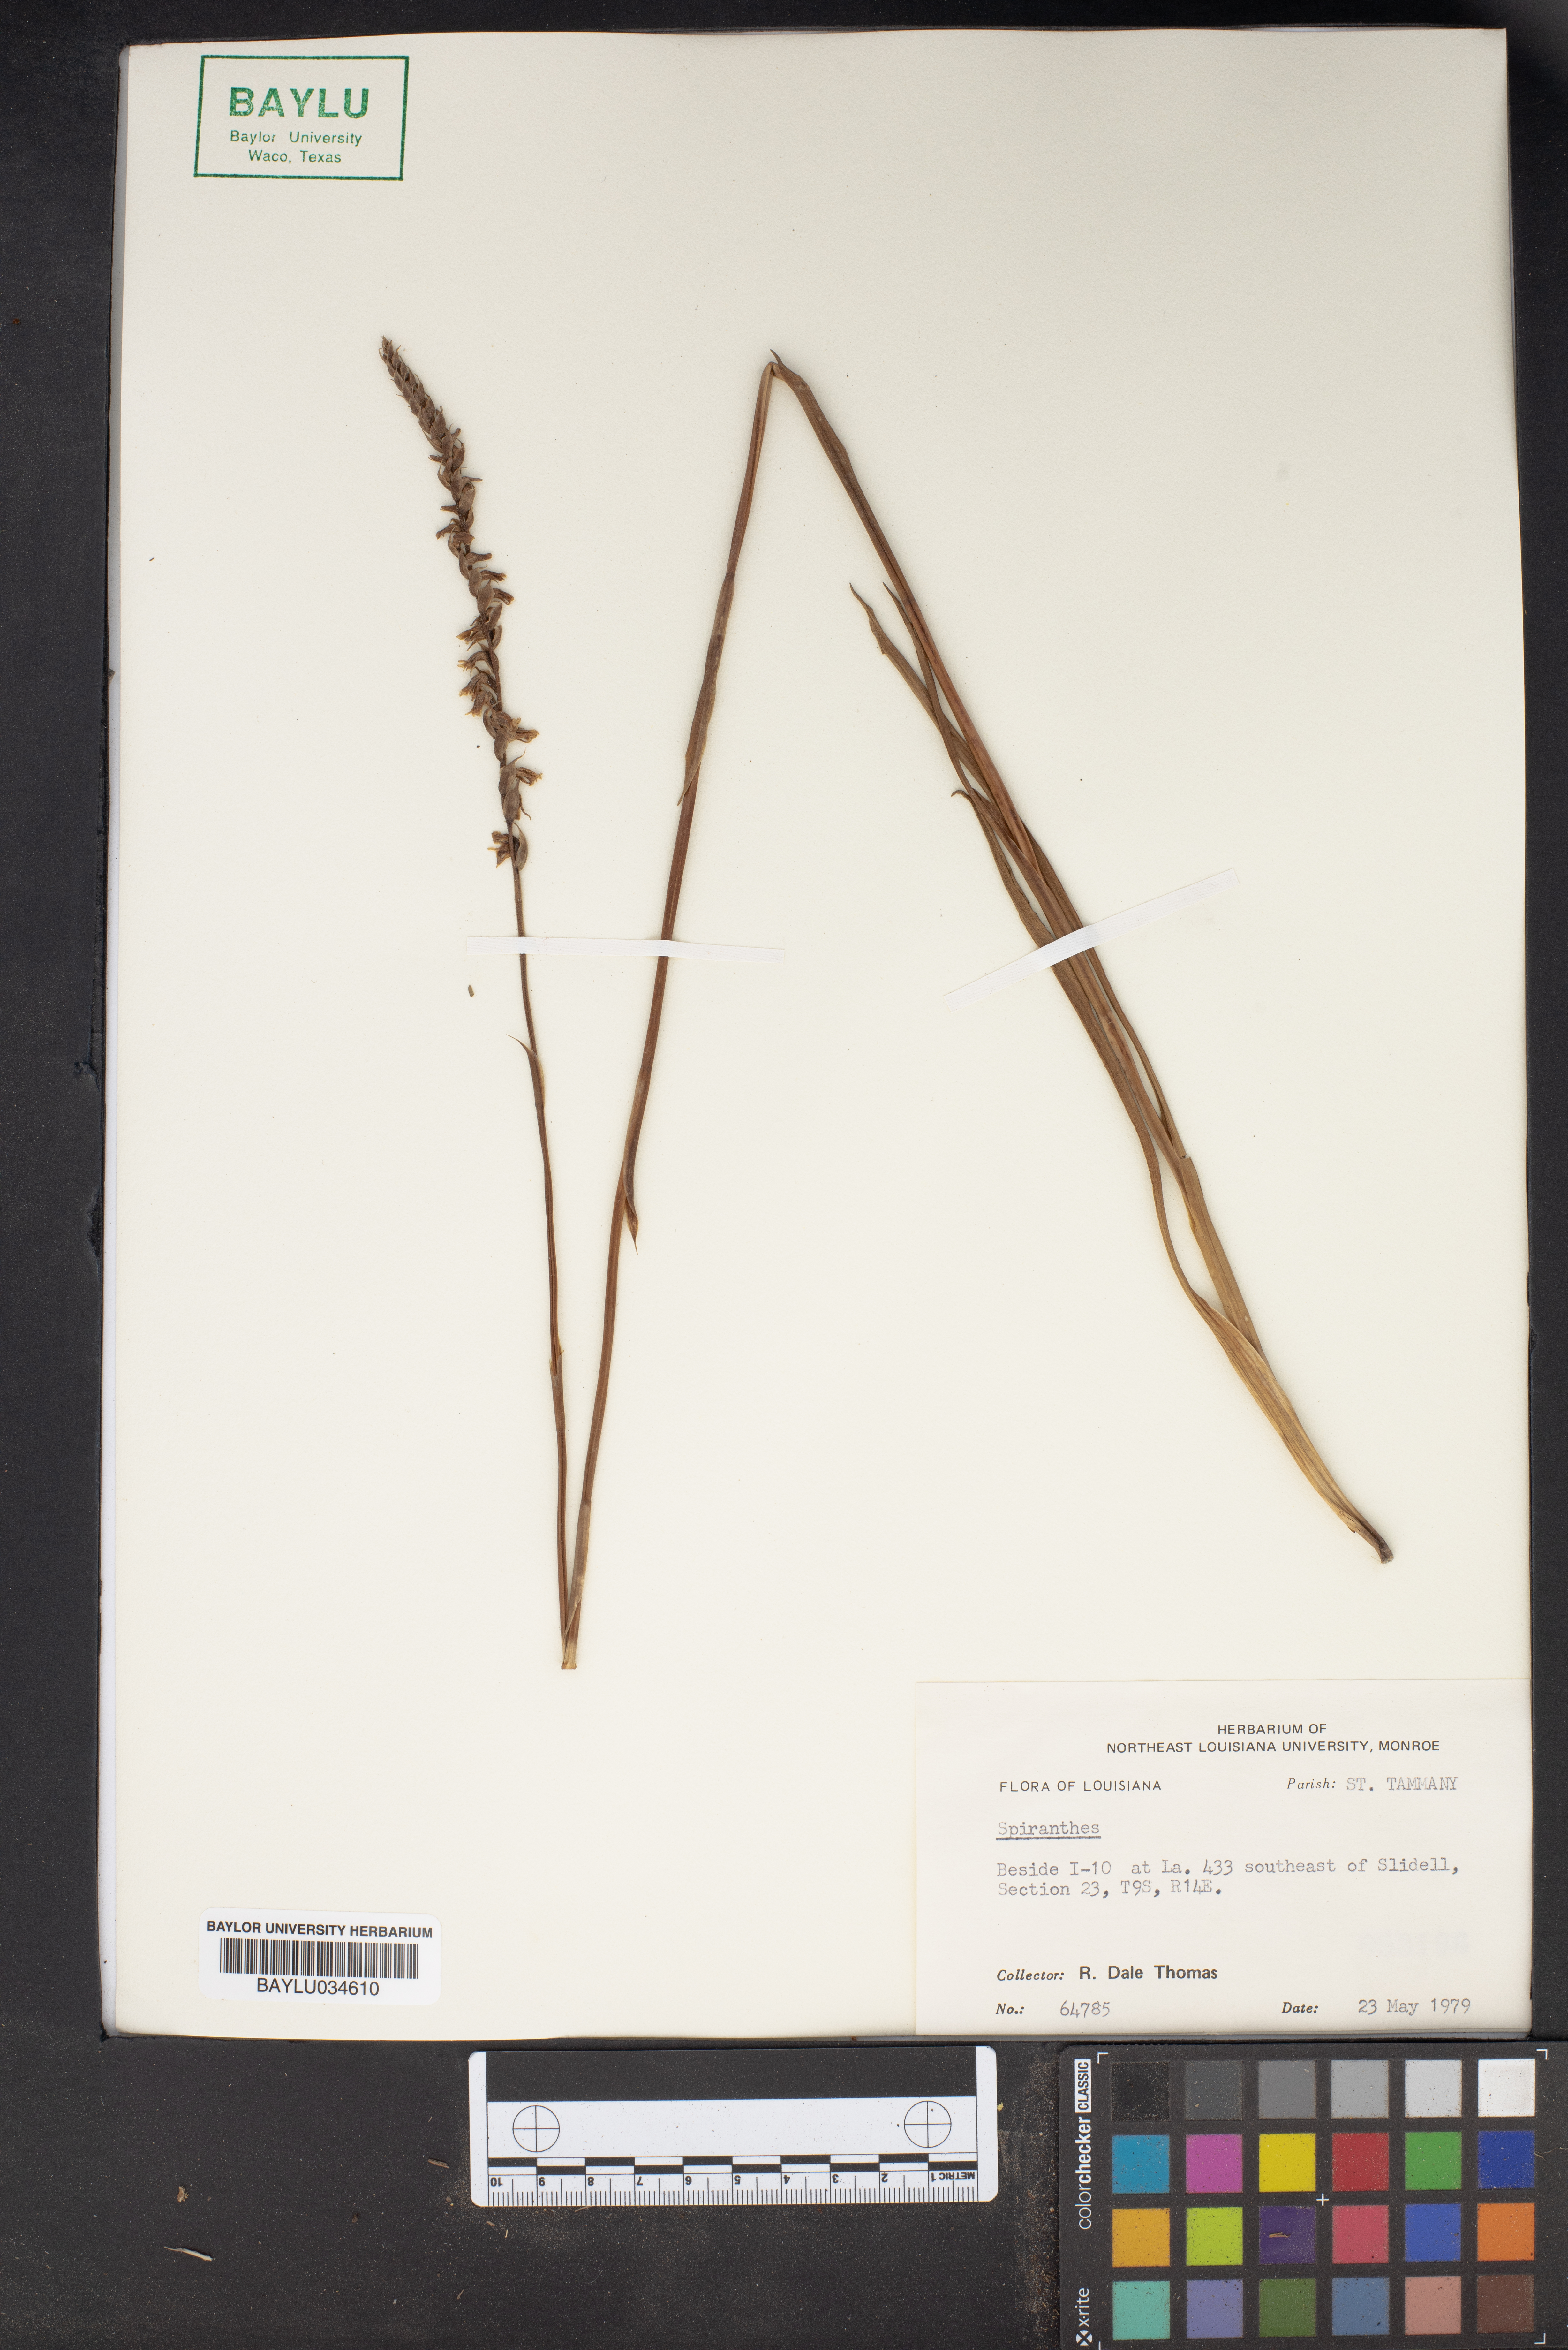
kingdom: Plantae
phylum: Tracheophyta
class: Liliopsida
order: Asparagales
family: Orchidaceae
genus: Spiranthes
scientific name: Spiranthes
